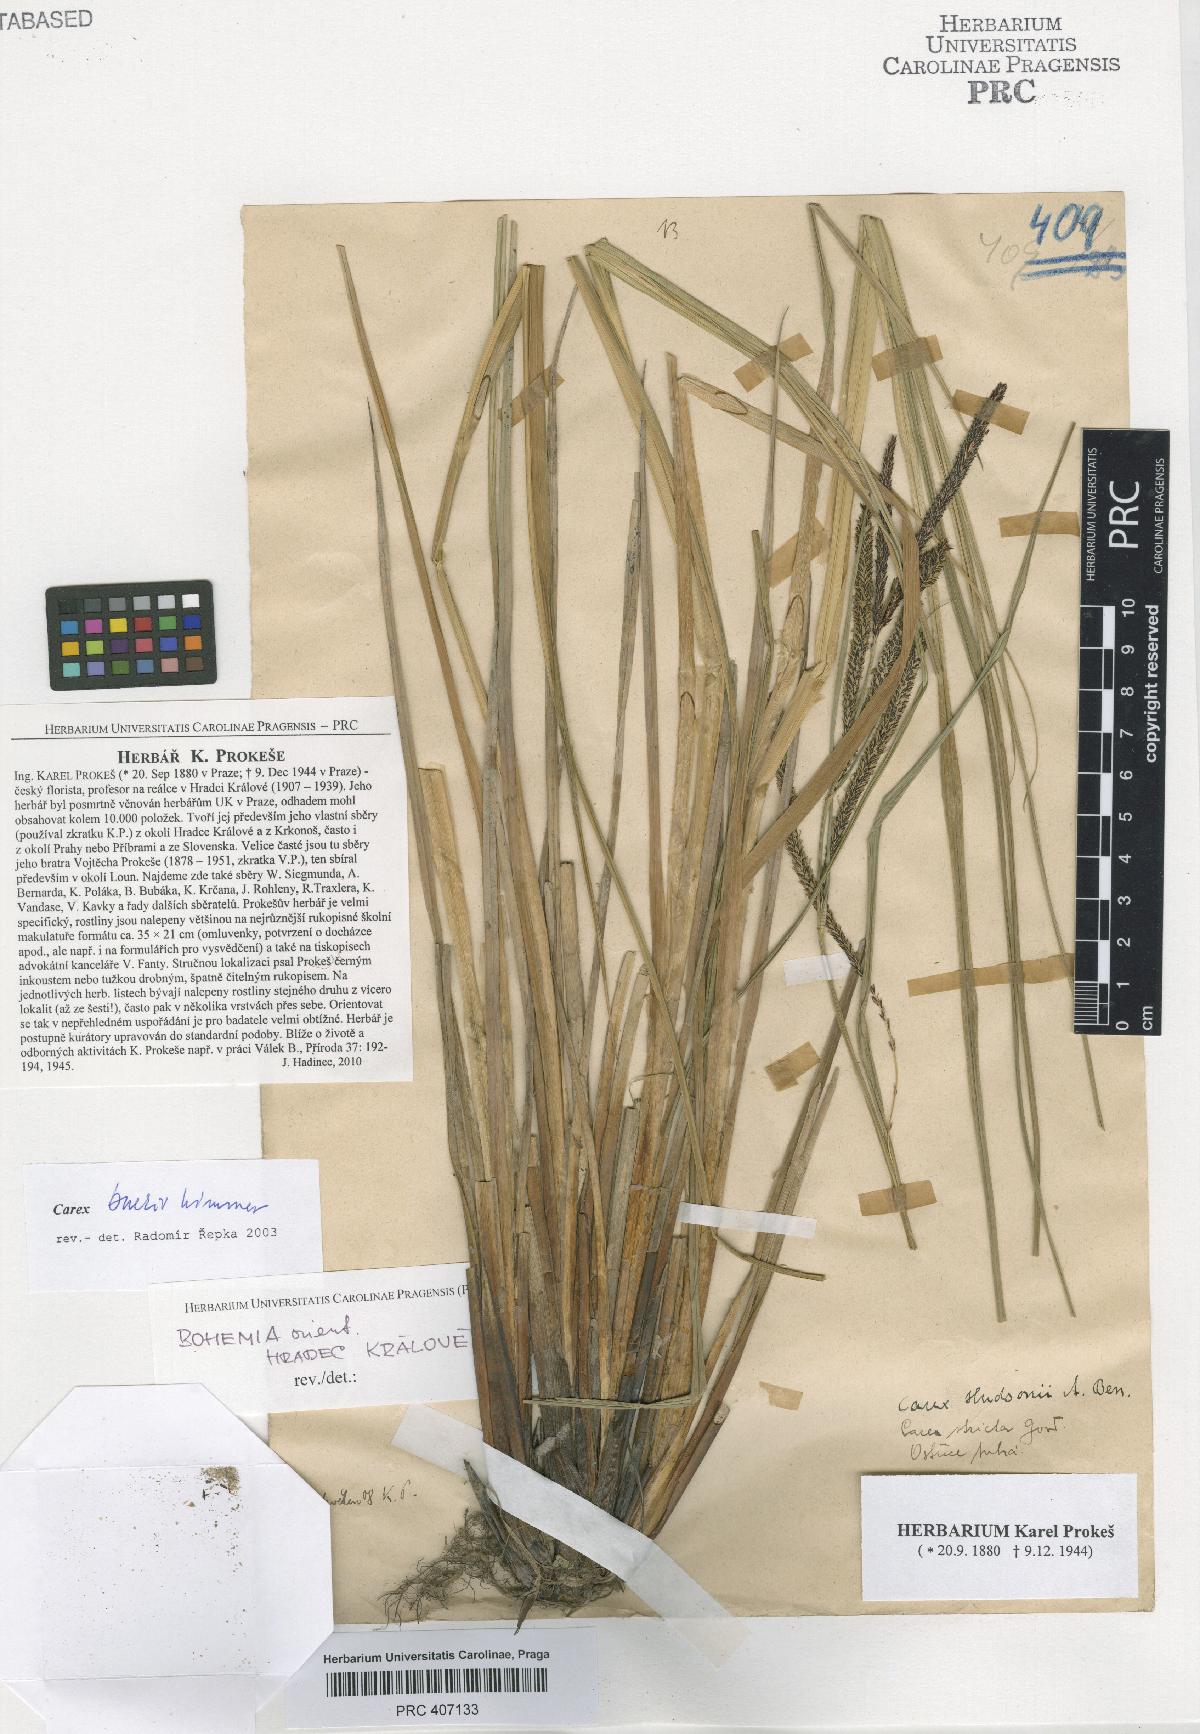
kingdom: Plantae
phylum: Tracheophyta
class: Liliopsida
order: Poales
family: Cyperaceae
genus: Carex
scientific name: Carex buekii
